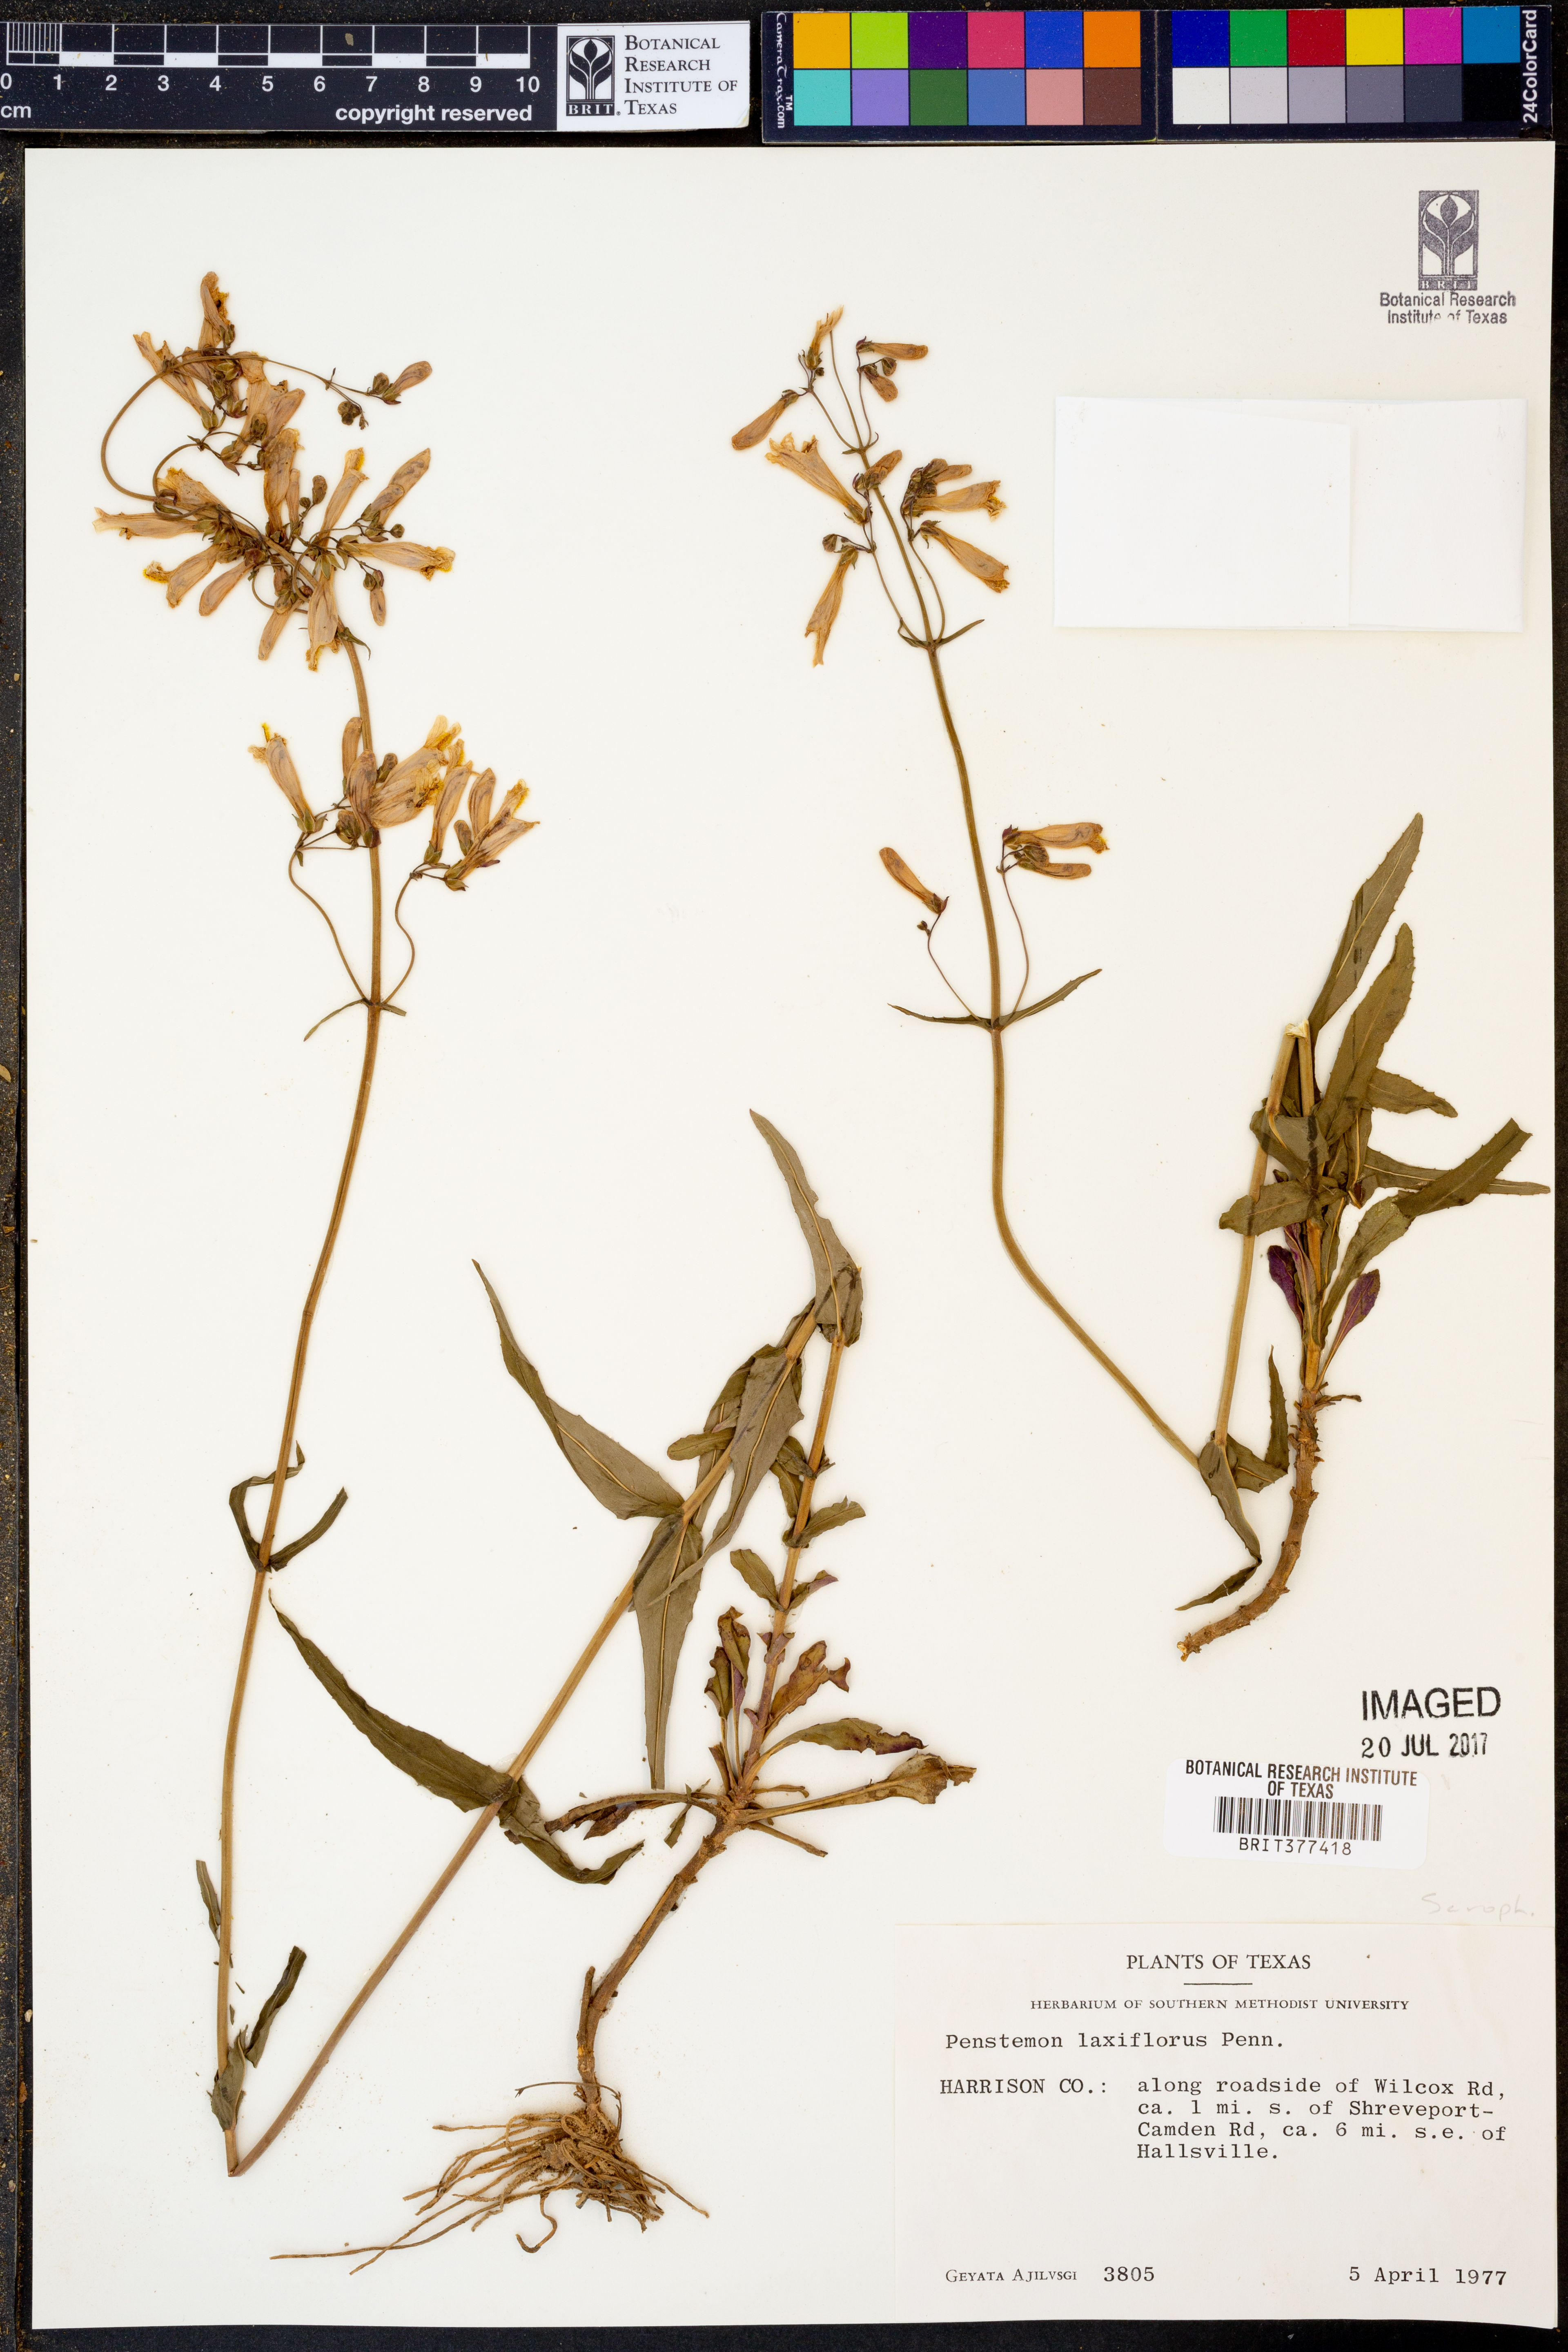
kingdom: Plantae
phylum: Tracheophyta
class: Magnoliopsida
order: Lamiales
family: Plantaginaceae
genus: Penstemon
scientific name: Penstemon laxiflorus
